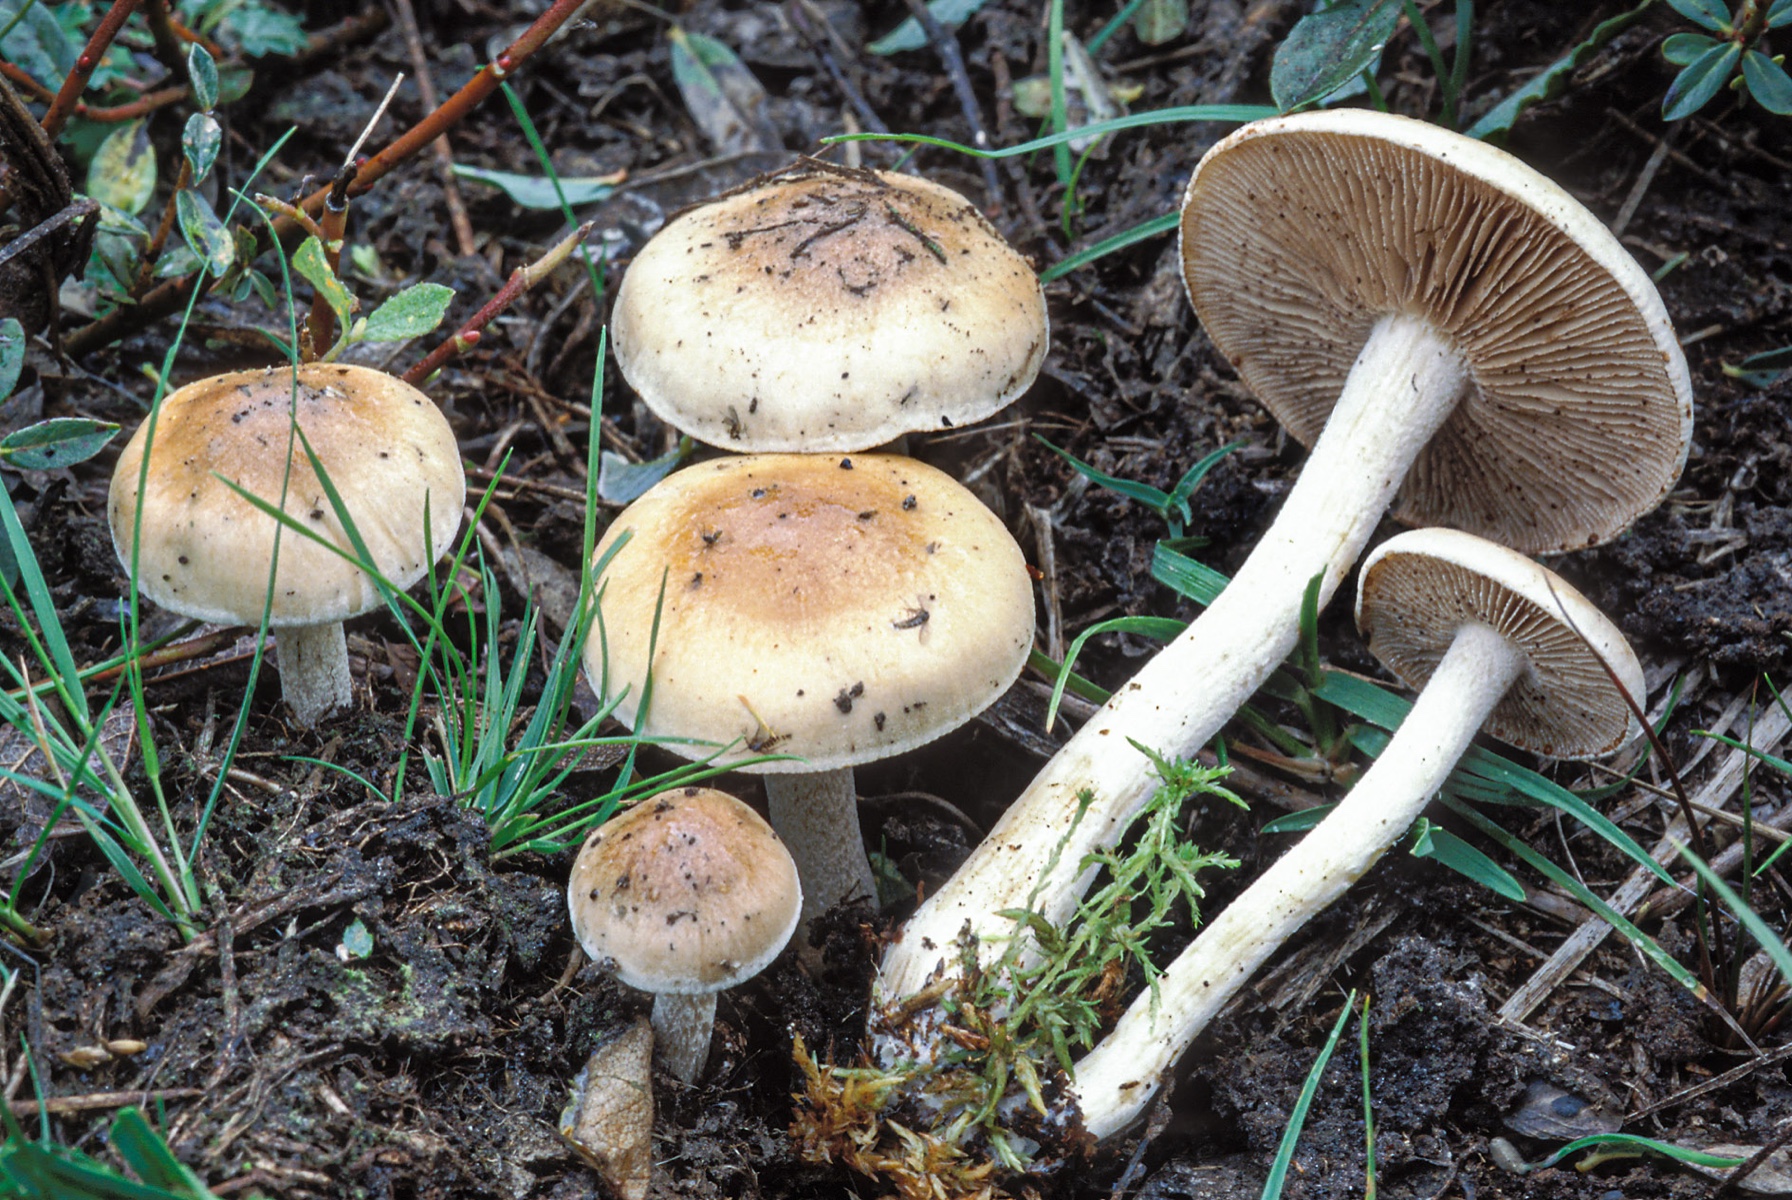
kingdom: Fungi
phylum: Basidiomycota
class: Agaricomycetes
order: Agaricales
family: Hymenogastraceae
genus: Hebeloma
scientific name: Hebeloma cavipes
